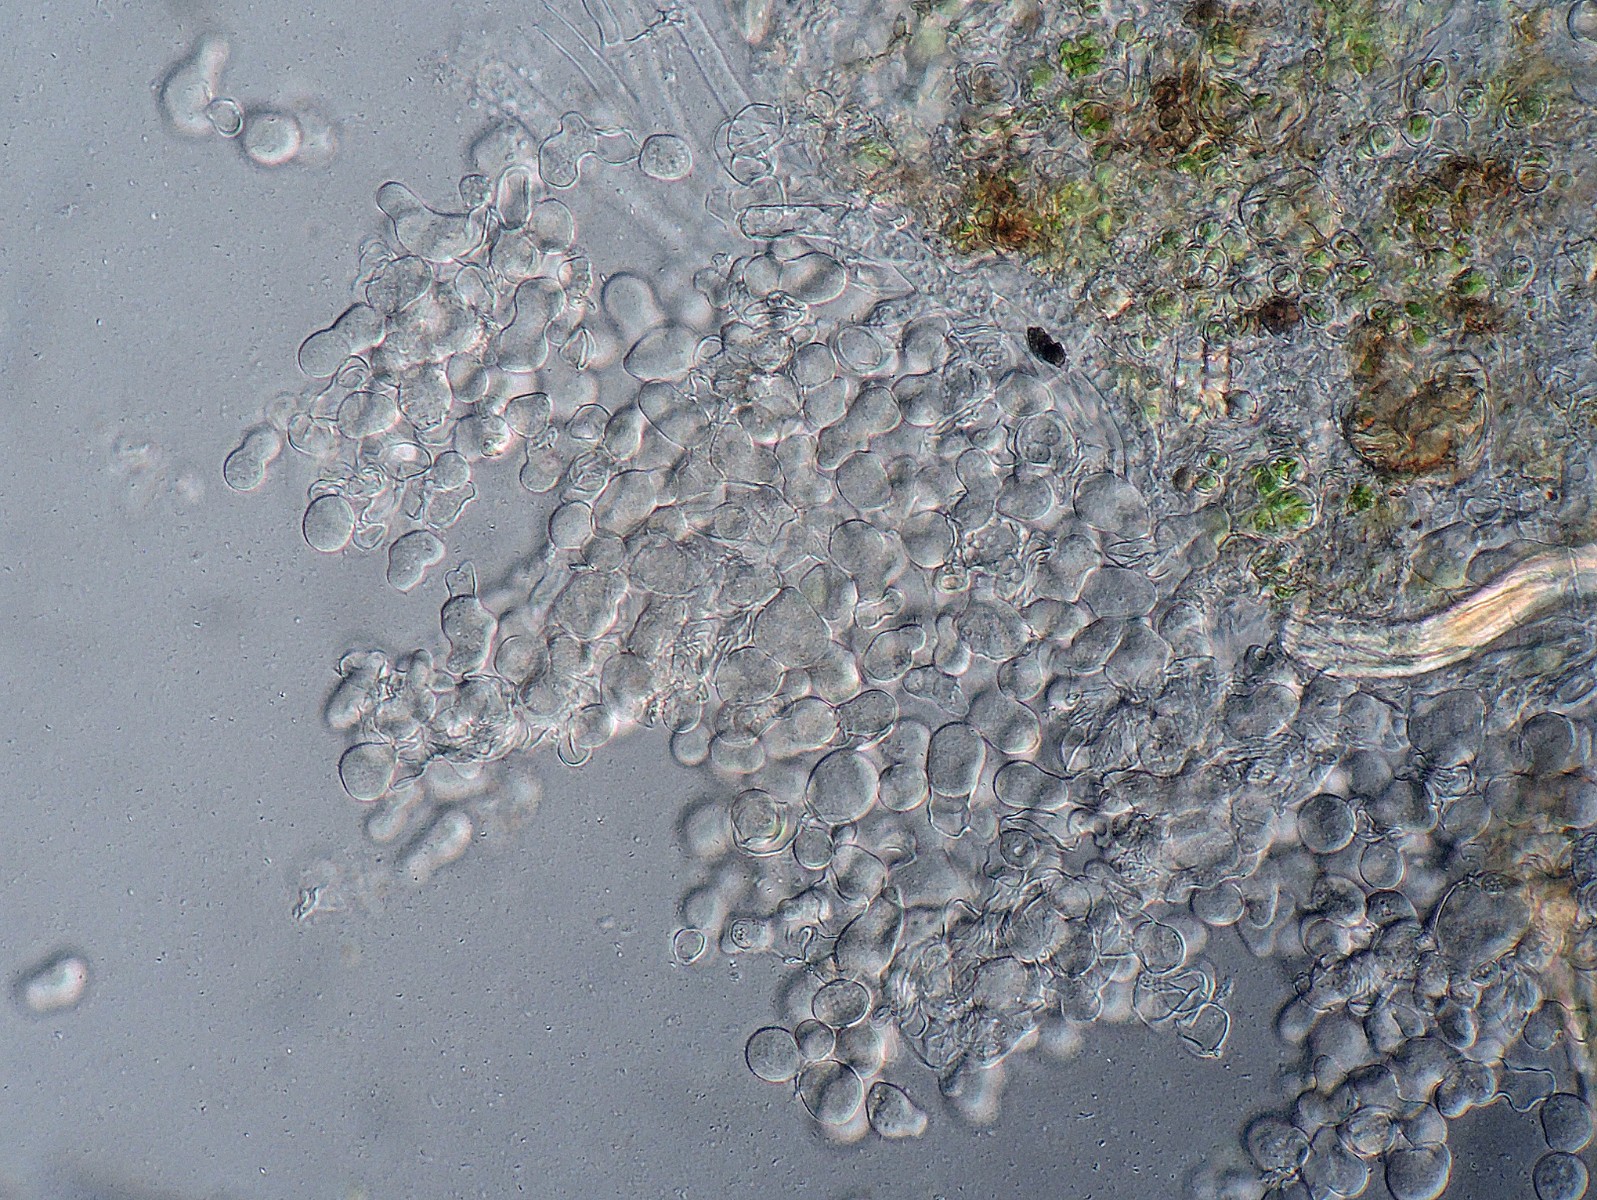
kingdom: Fungi
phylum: Basidiomycota
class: Agaricomycetes
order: Corticiales
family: Corticiaceae
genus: Erythricium
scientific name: Erythricium aurantiacum
